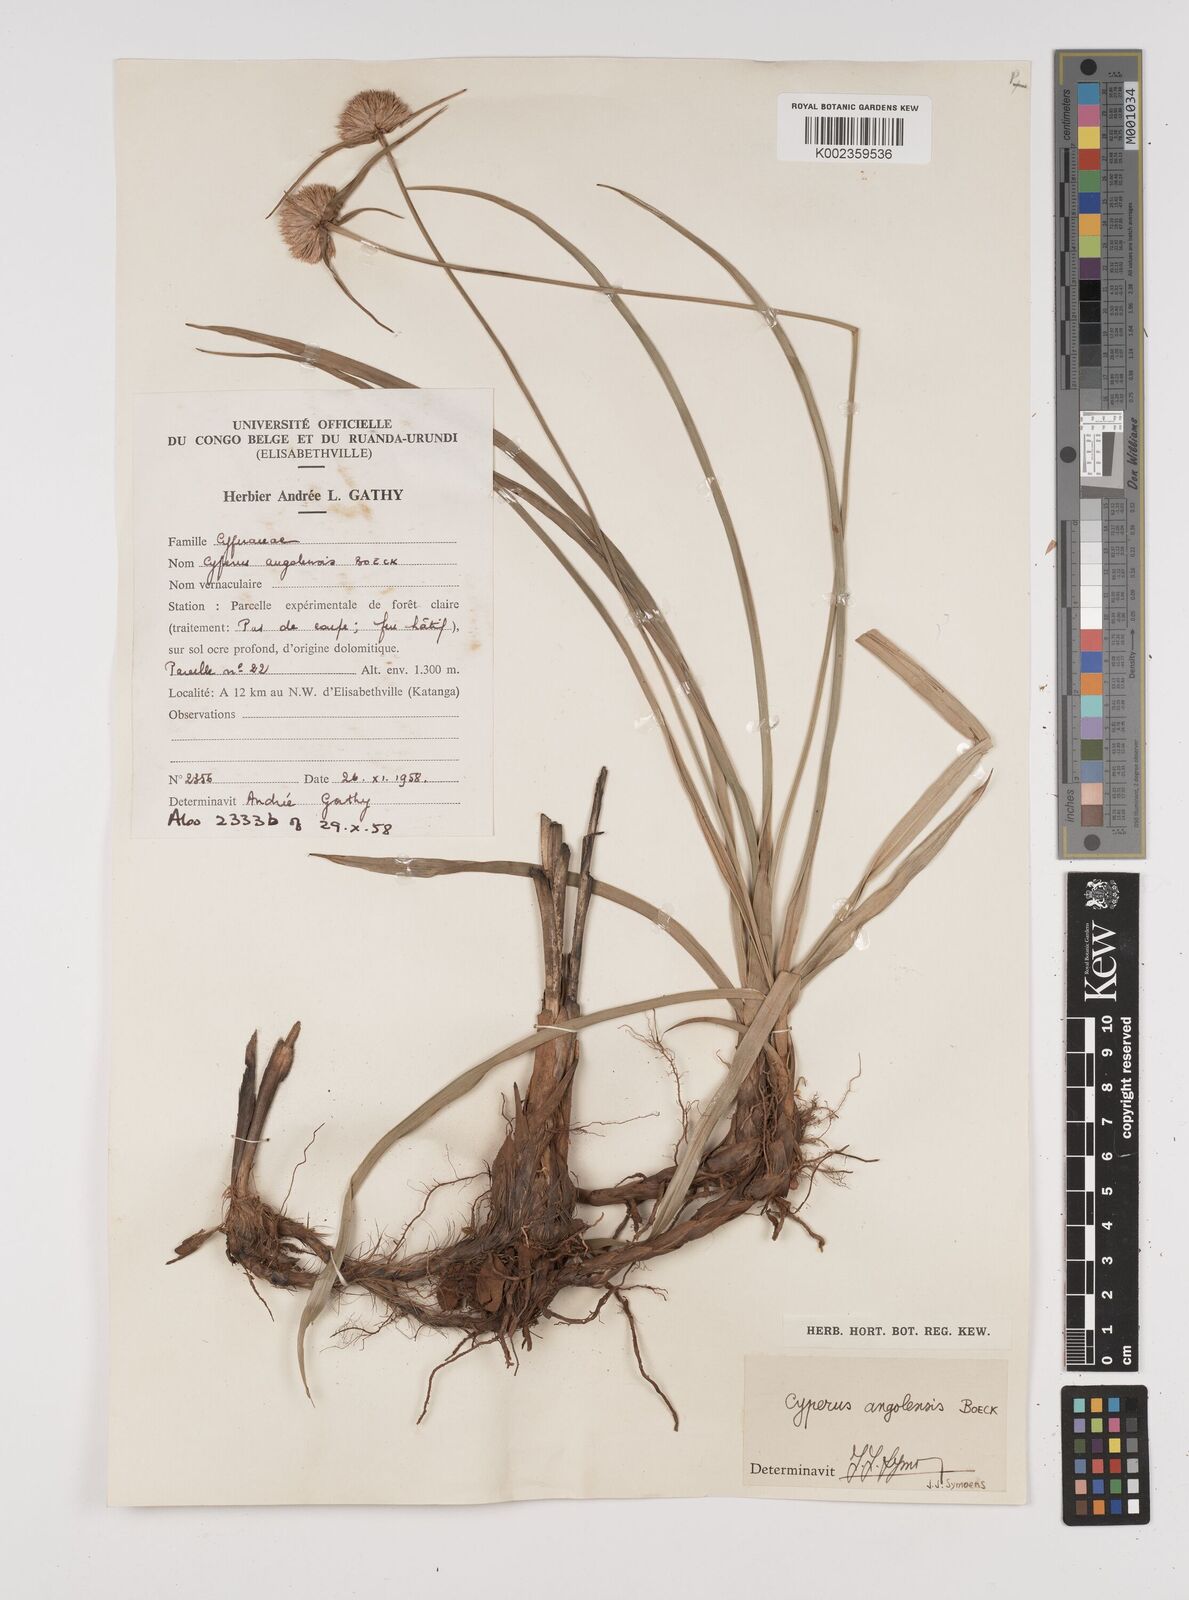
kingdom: Plantae
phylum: Tracheophyta
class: Liliopsida
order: Poales
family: Cyperaceae
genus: Cyperus
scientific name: Cyperus angolensis
